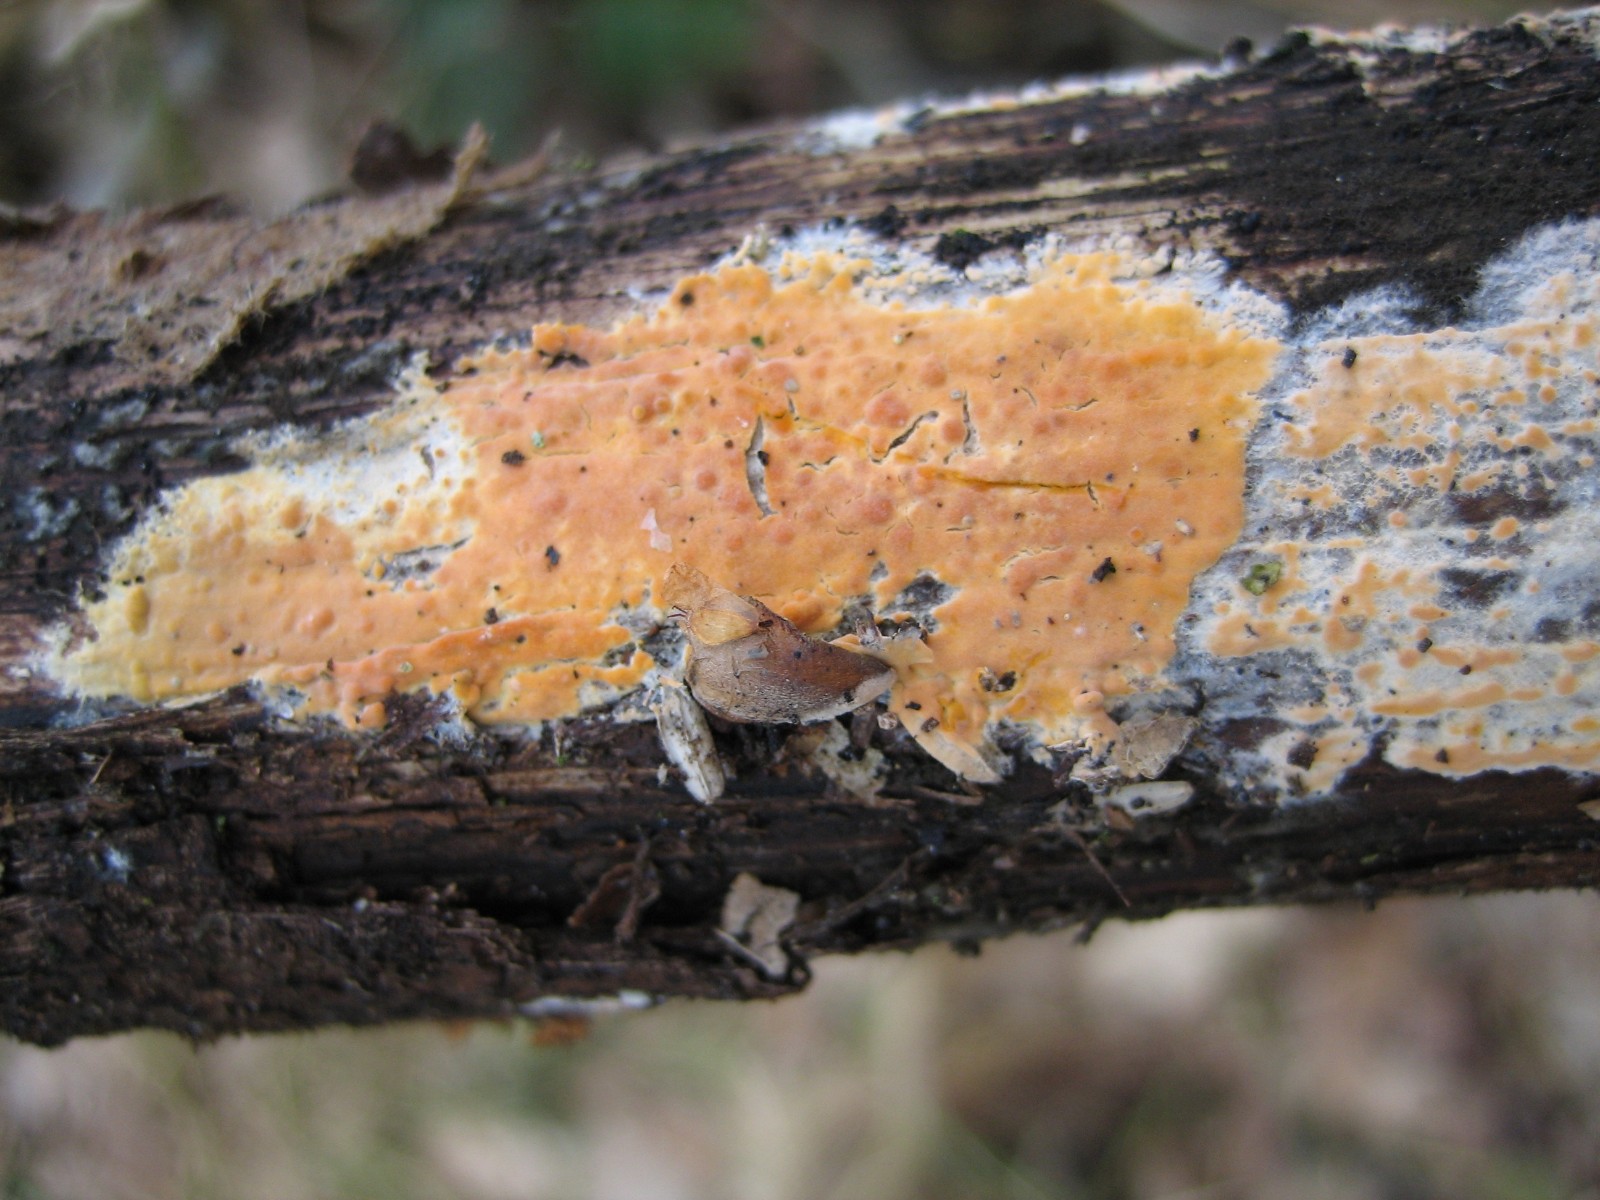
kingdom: Fungi
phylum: Basidiomycota
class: Agaricomycetes
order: Russulales
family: Peniophoraceae
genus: Peniophora
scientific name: Peniophora incarnata
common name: laksefarvet voksskind
